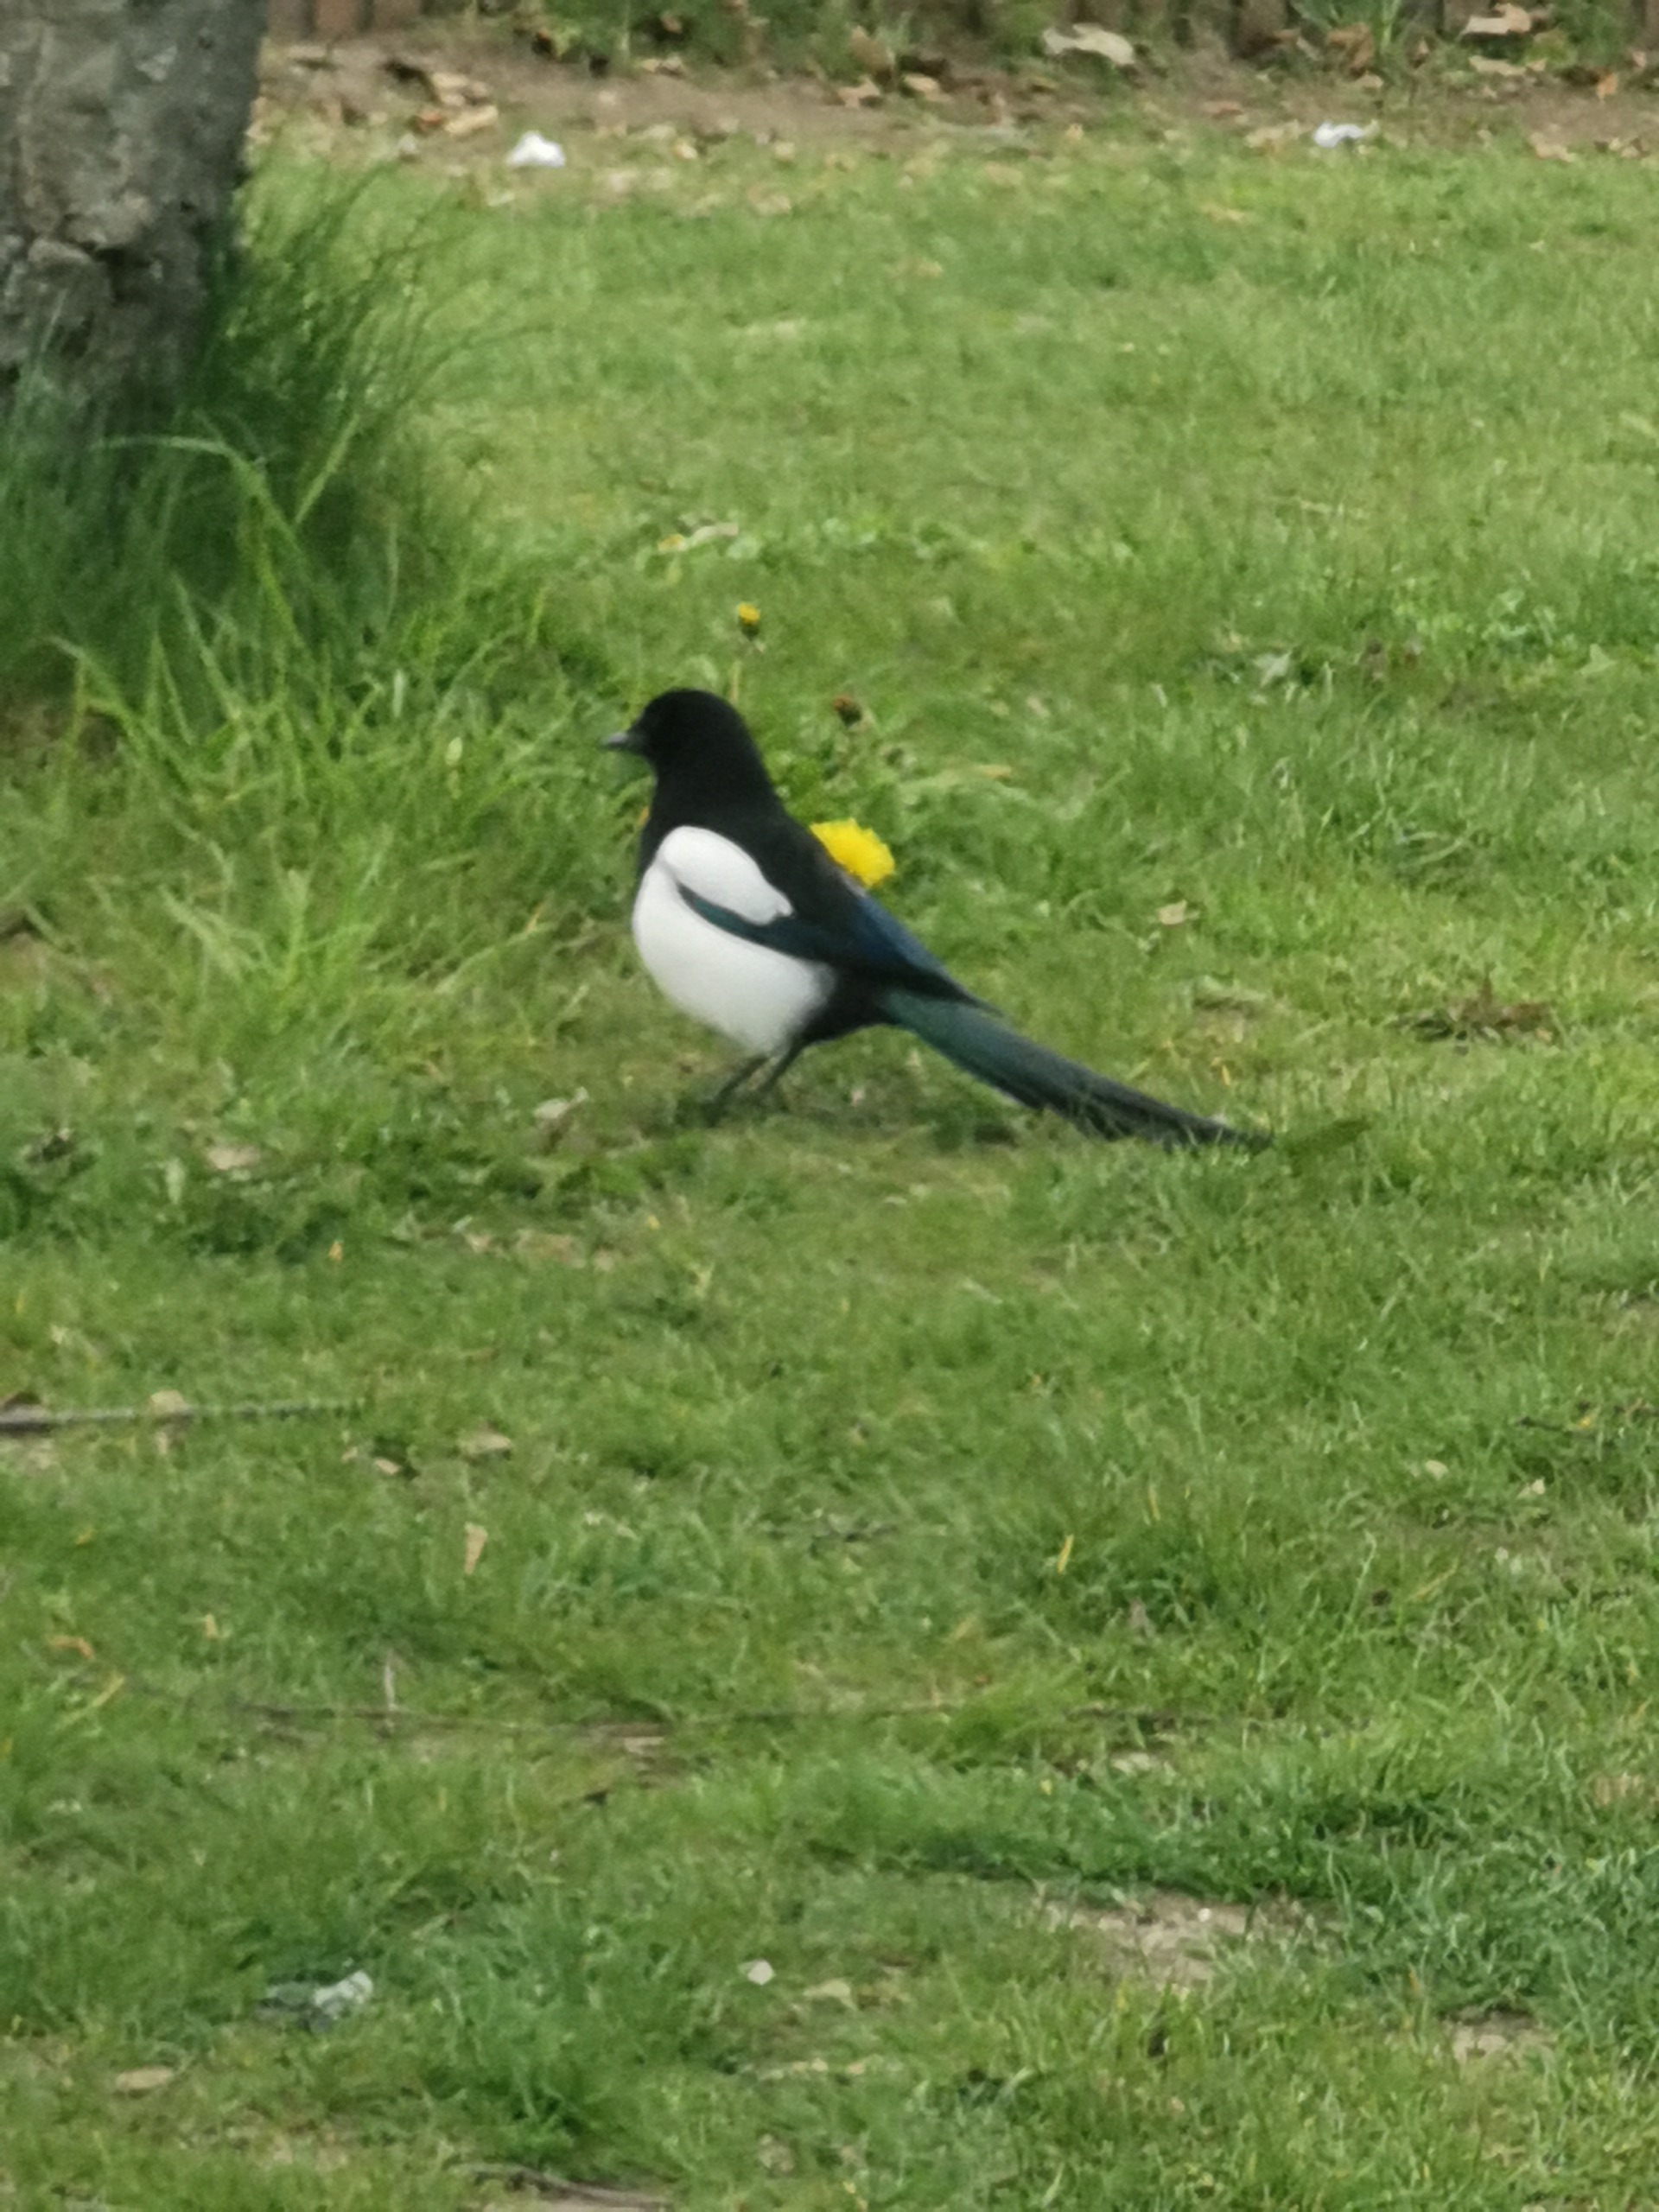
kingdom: Animalia
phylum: Chordata
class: Aves
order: Passeriformes
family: Corvidae
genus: Pica
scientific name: Pica pica
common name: Husskade
